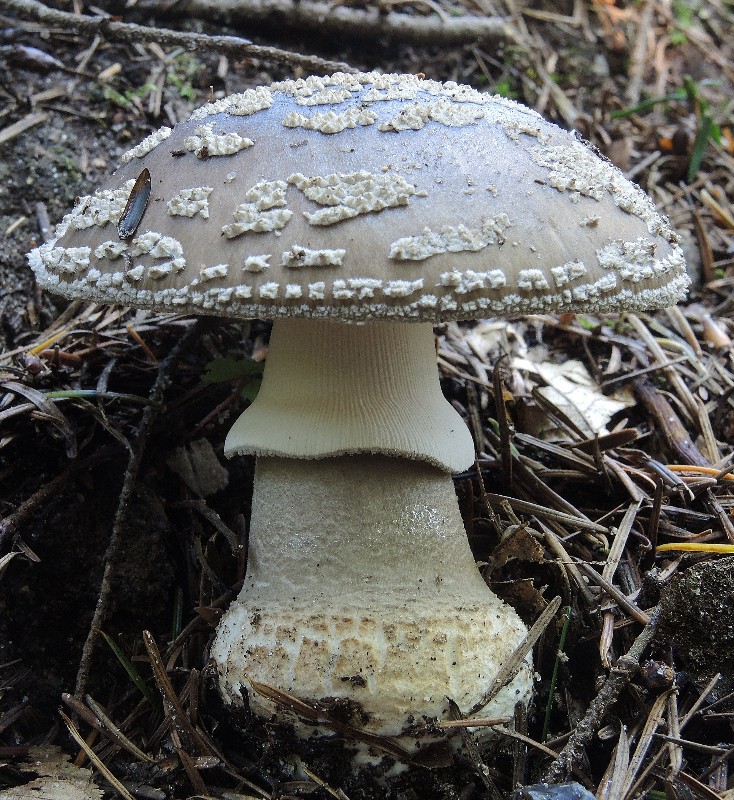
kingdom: Fungi
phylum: Basidiomycota
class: Agaricomycetes
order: Agaricales
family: Amanitaceae
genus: Amanita
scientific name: Amanita
